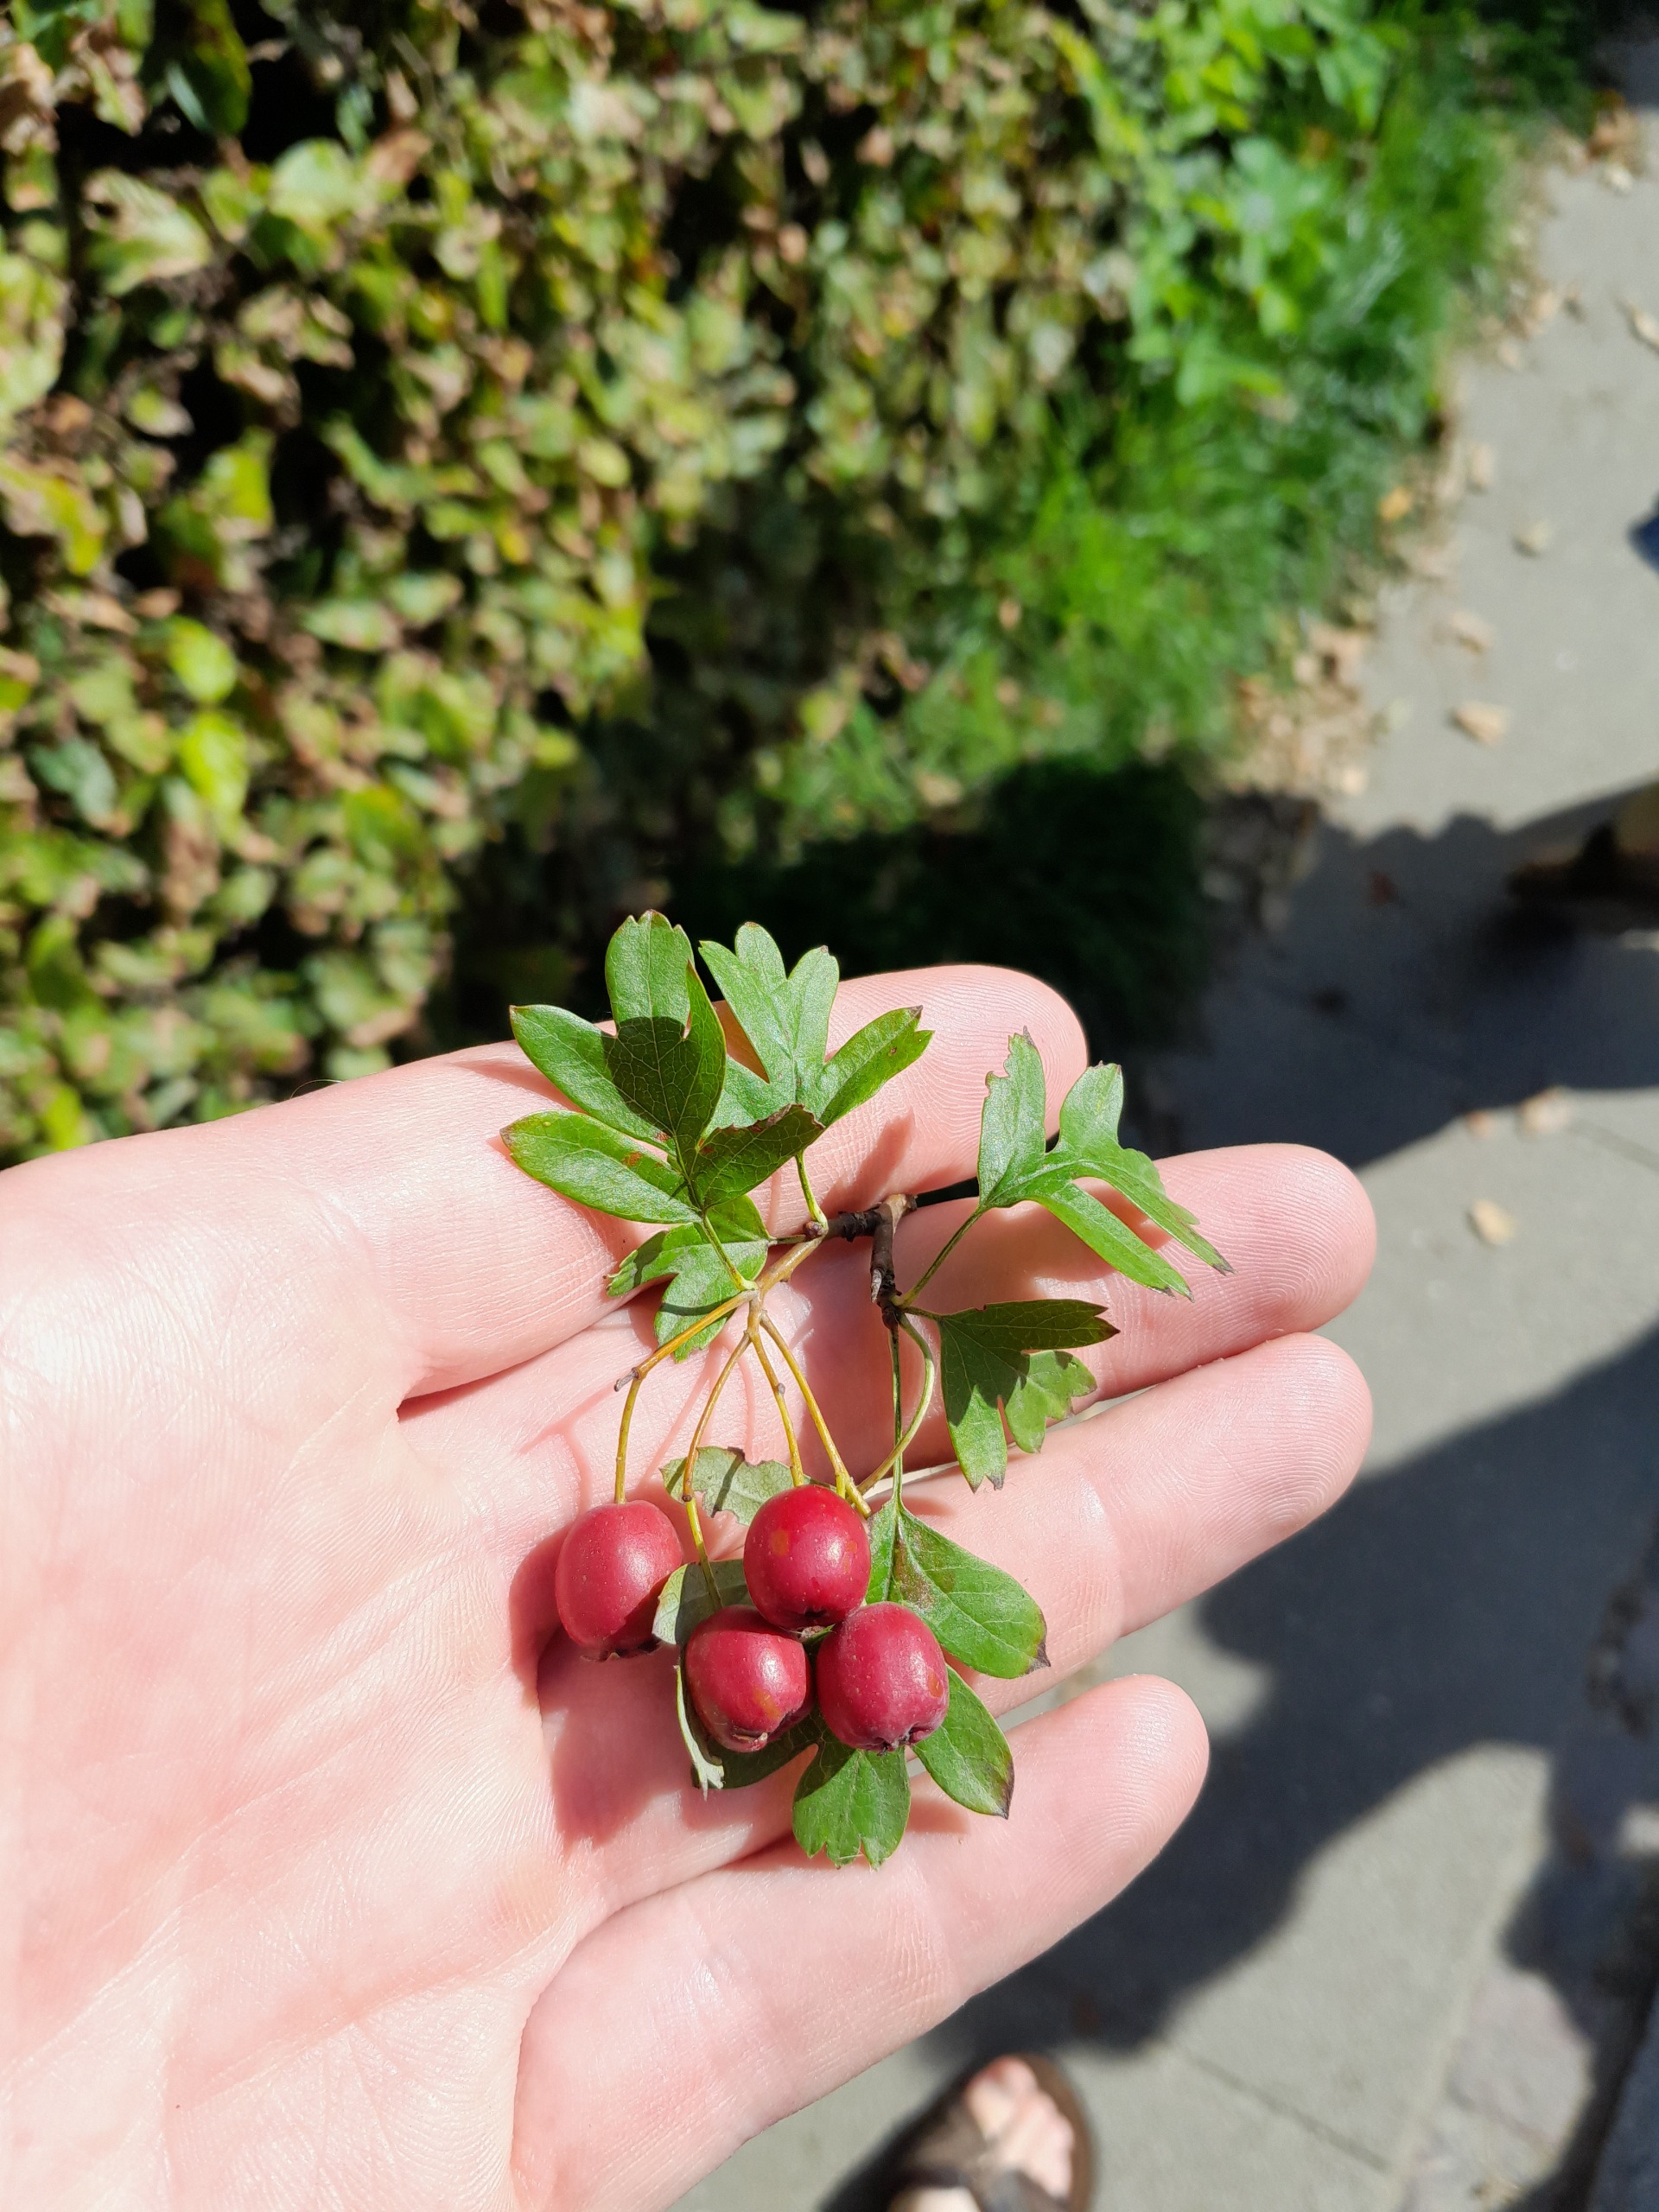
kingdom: Plantae
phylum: Tracheophyta
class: Magnoliopsida
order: Rosales
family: Rosaceae
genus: Crataegus
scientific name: Crataegus monogyna
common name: Engriflet hvidtjørn
